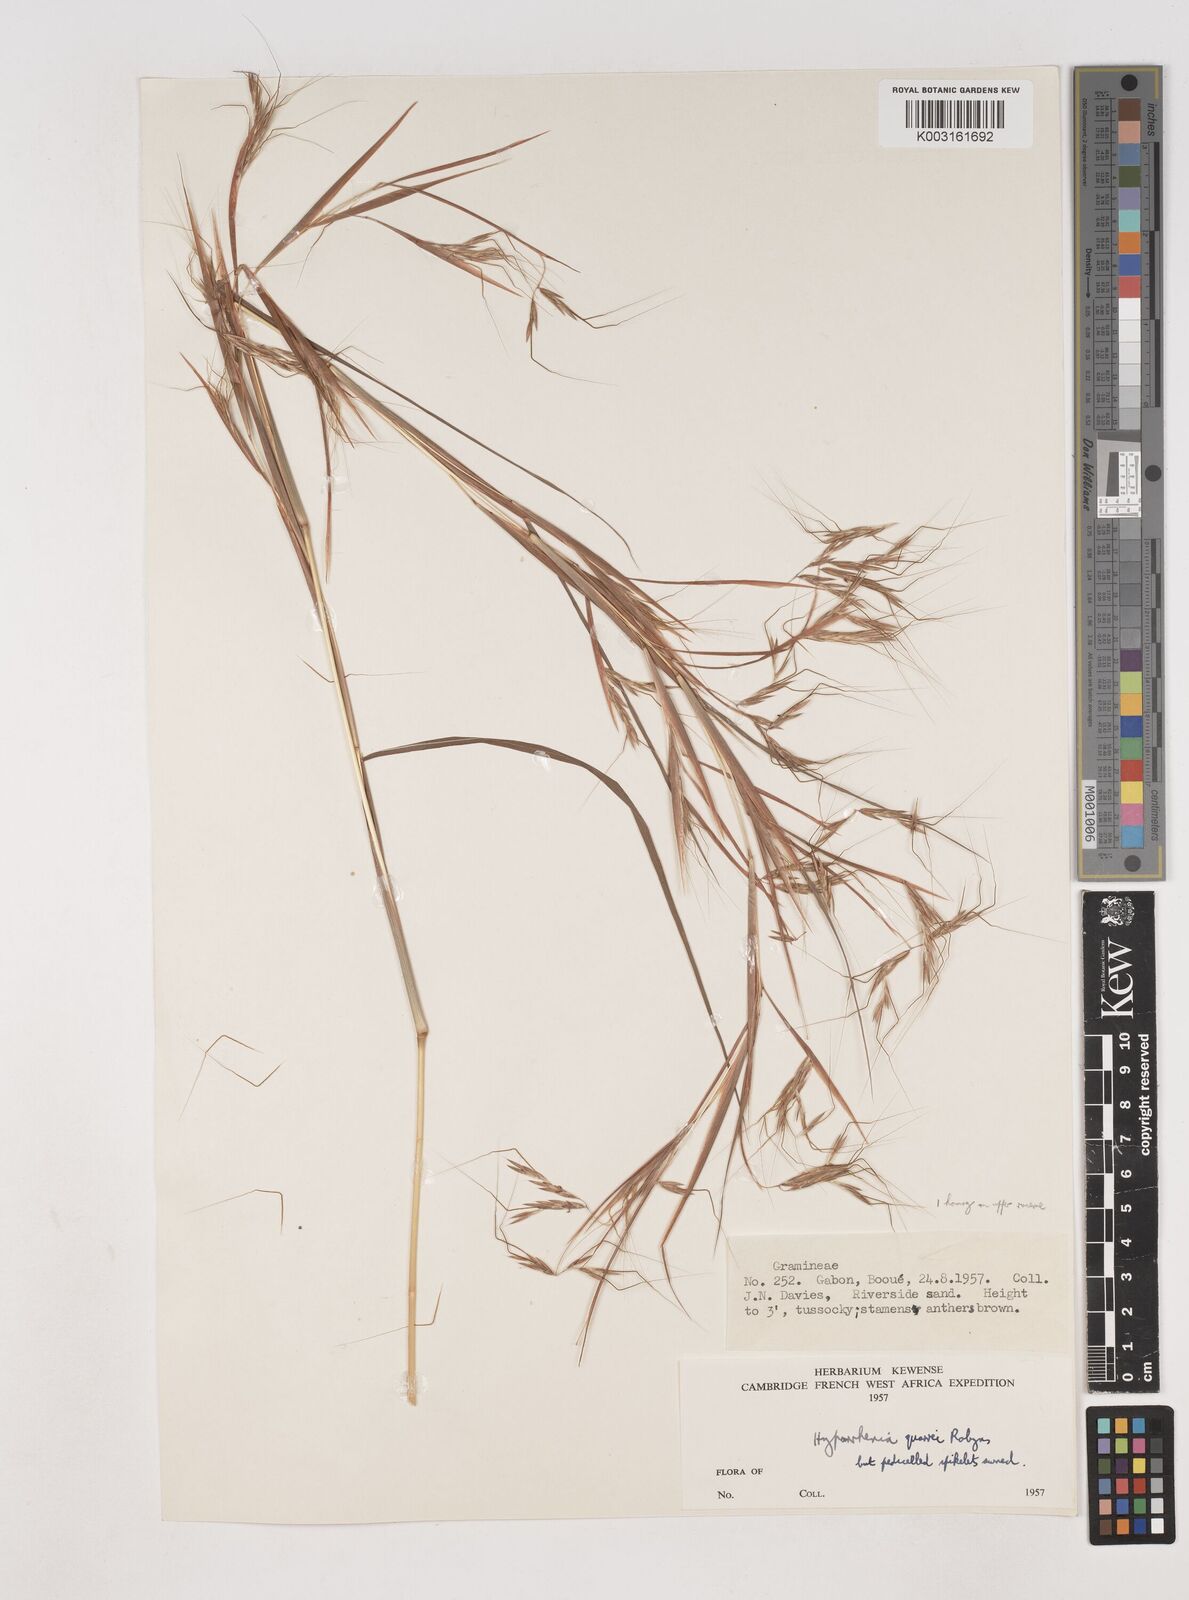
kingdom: Plantae
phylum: Tracheophyta
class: Liliopsida
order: Poales
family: Poaceae
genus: Hyparrhenia
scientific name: Hyparrhenia quarrei
